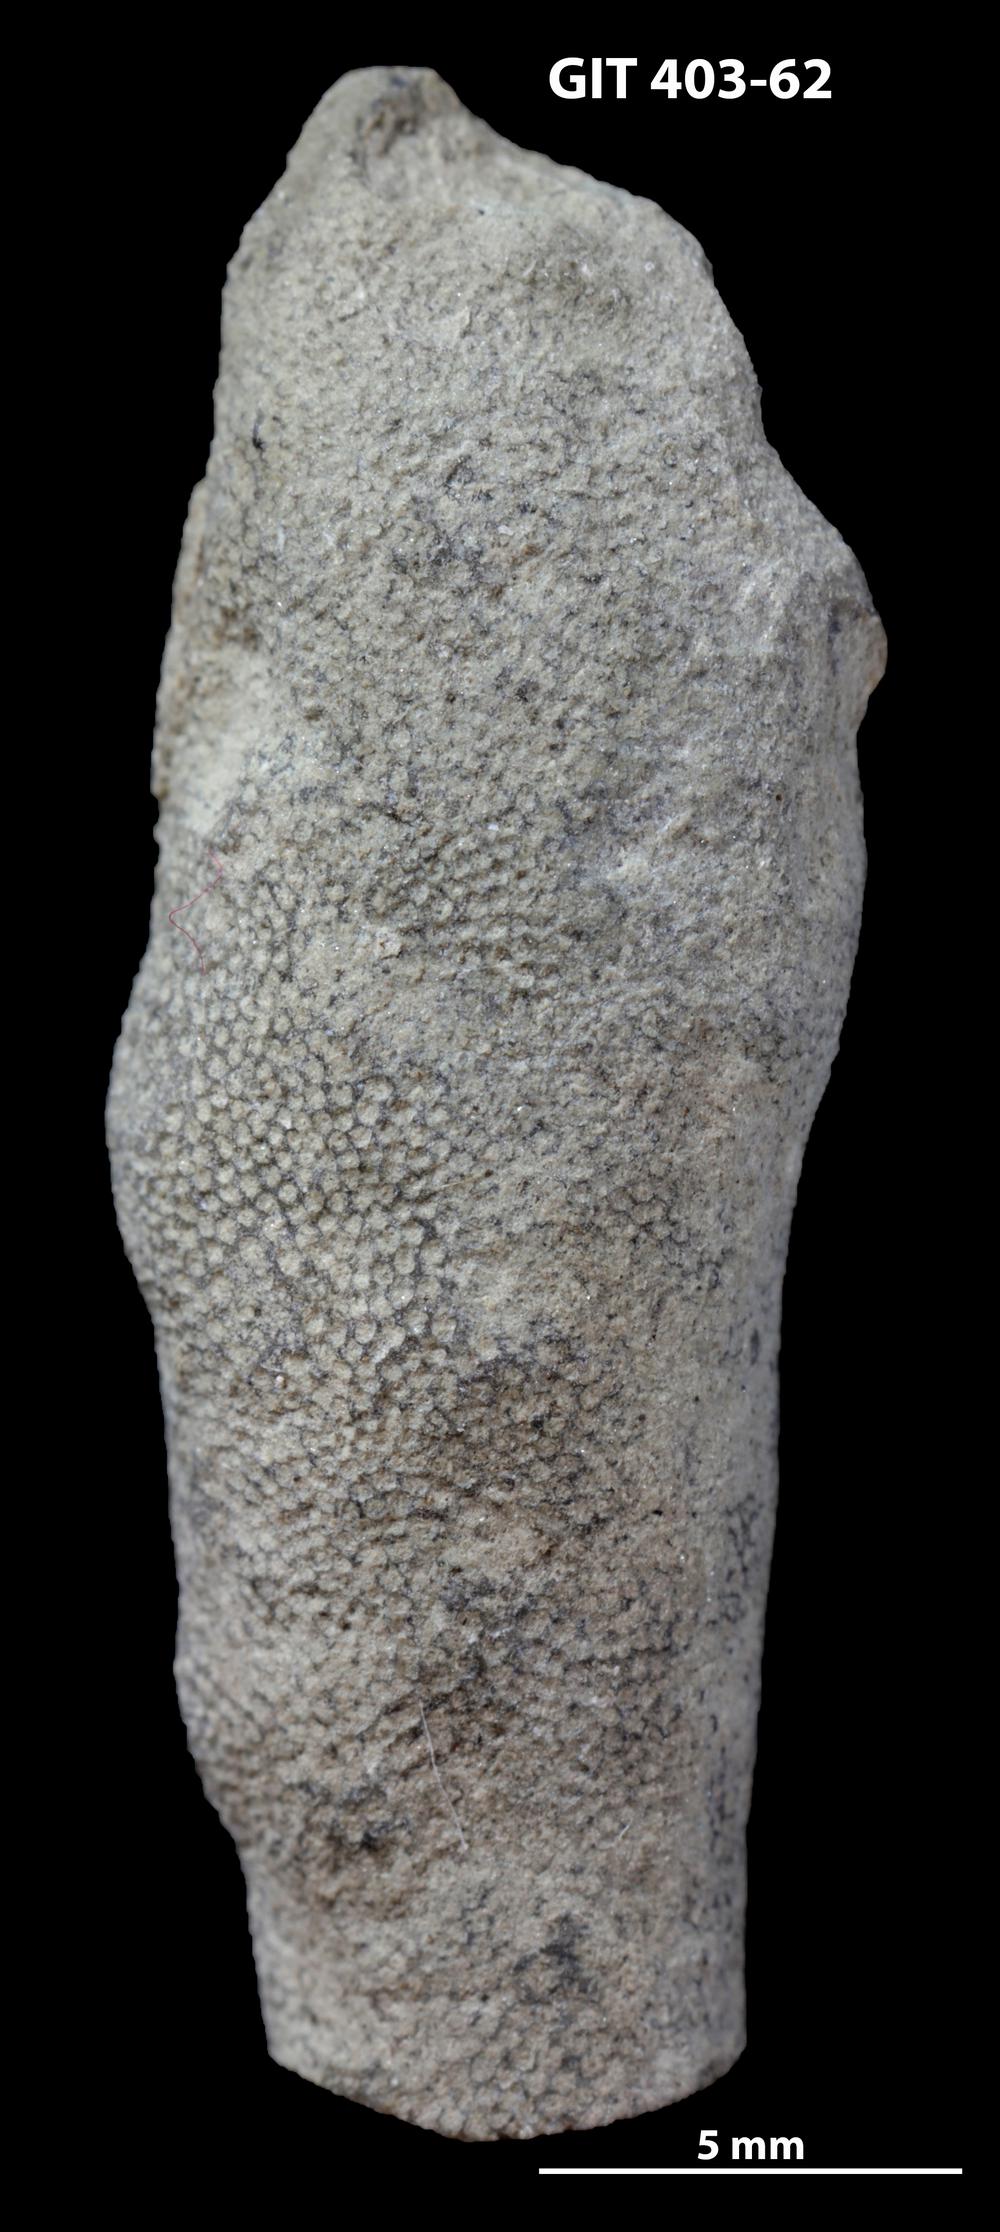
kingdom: Animalia
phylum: Bryozoa
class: Stenolaemata
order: Cystoporida
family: Fistuliporidae
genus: Fistulipora
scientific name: Fistulipora
